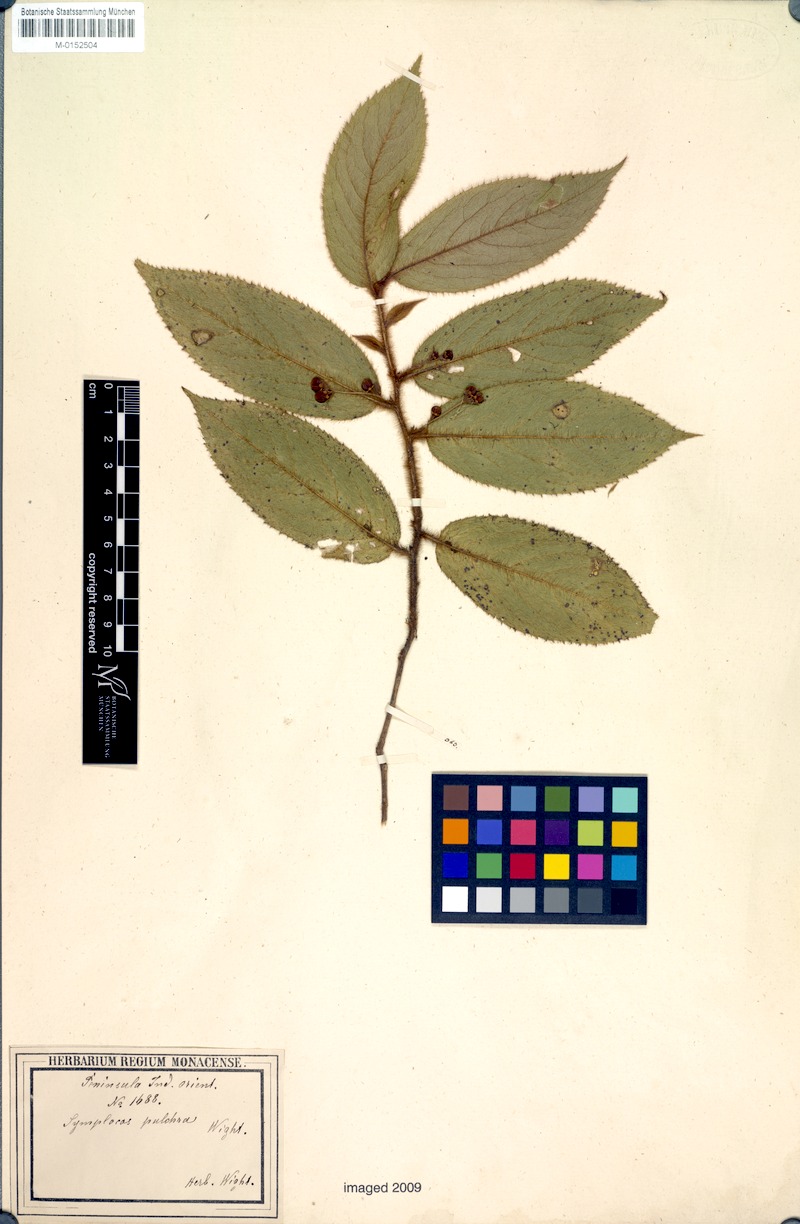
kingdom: Plantae
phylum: Tracheophyta
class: Magnoliopsida
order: Ericales
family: Symplocaceae
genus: Symplocos
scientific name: Symplocos pulchra
